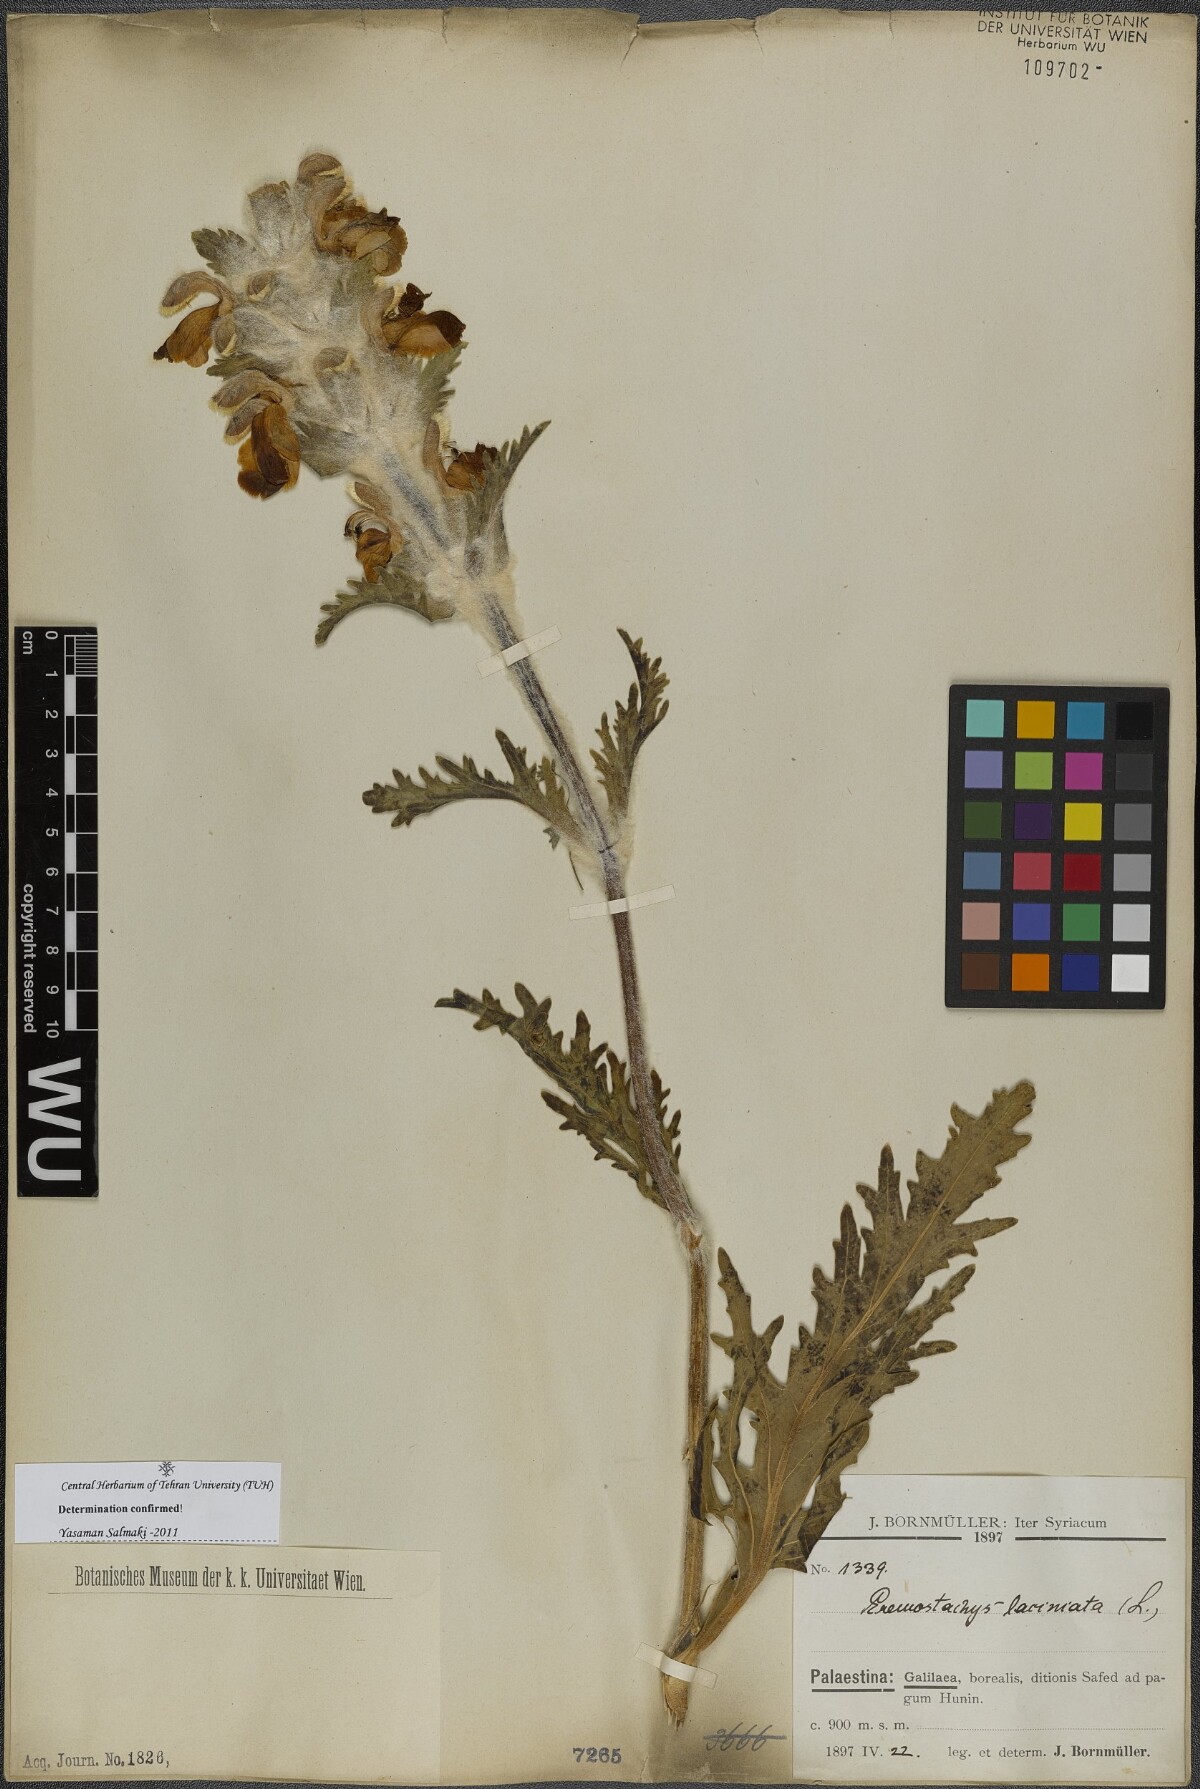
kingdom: Plantae
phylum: Tracheophyta
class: Magnoliopsida
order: Lamiales
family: Lamiaceae
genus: Phlomoides
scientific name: Phlomoides laciniata
